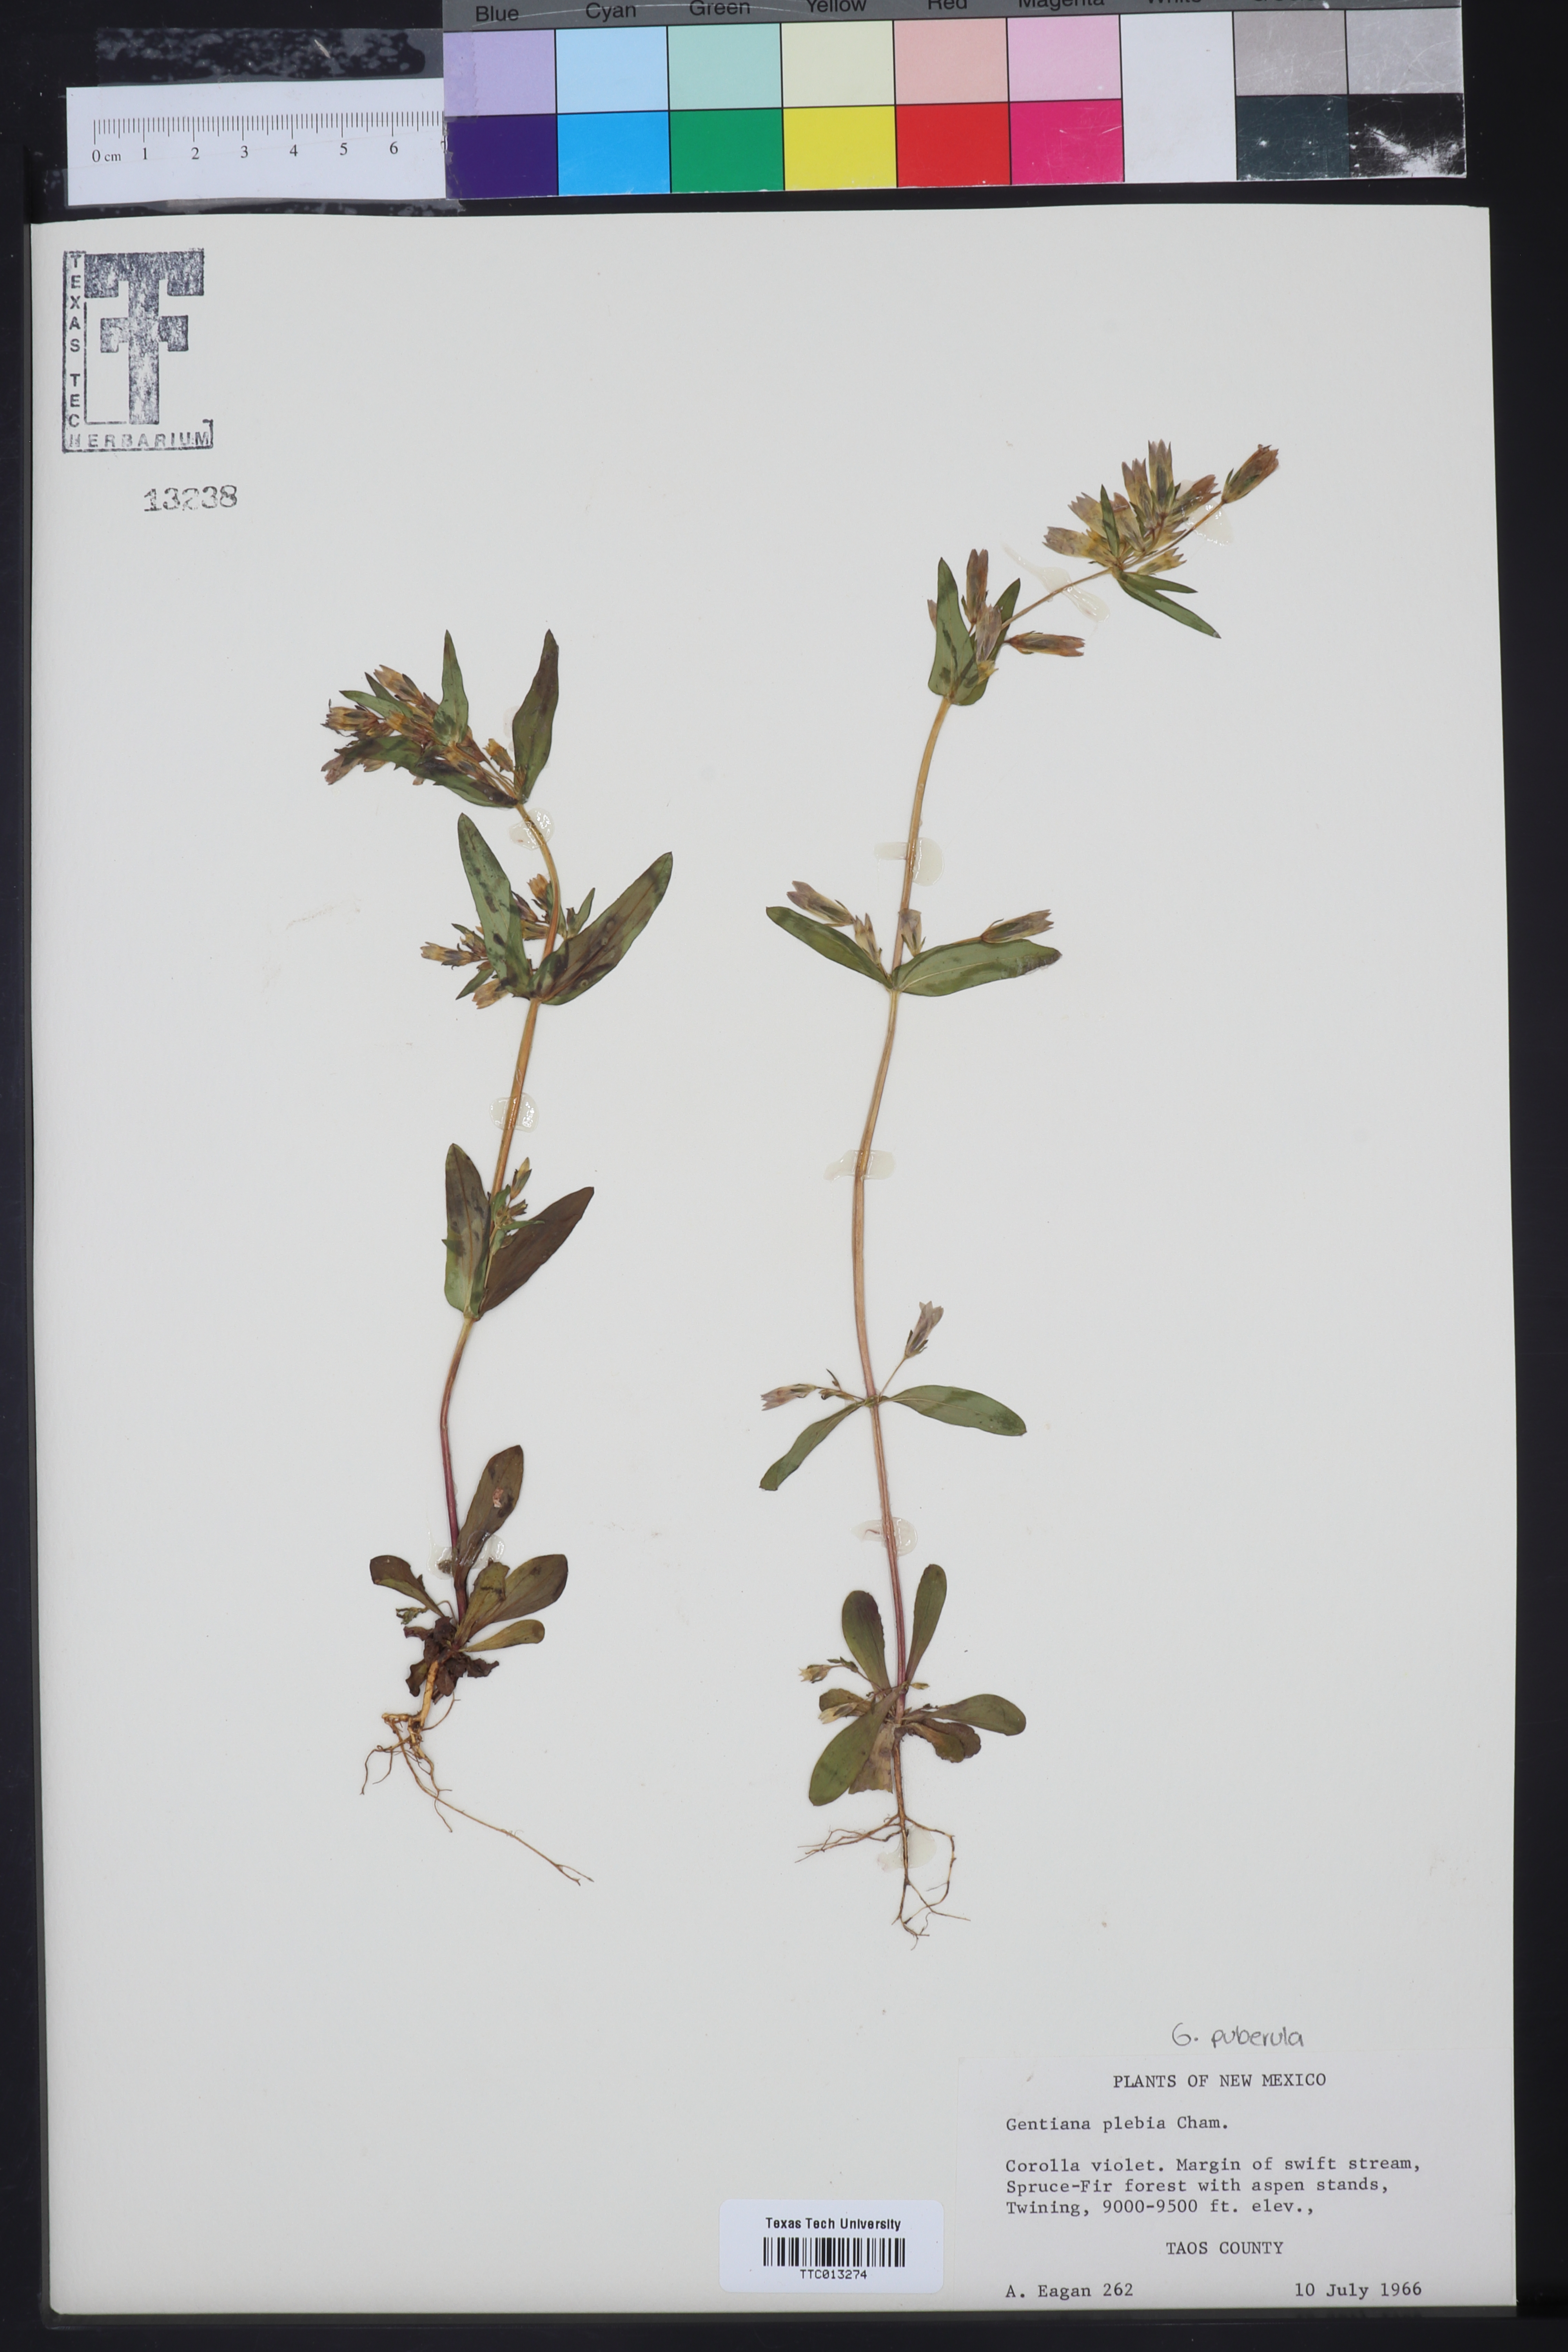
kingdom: Plantae
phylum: Tracheophyta
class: Magnoliopsida
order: Gentianales
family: Gentianaceae
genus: Gentianella
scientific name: Gentianella amarella
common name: Autumn gentian
